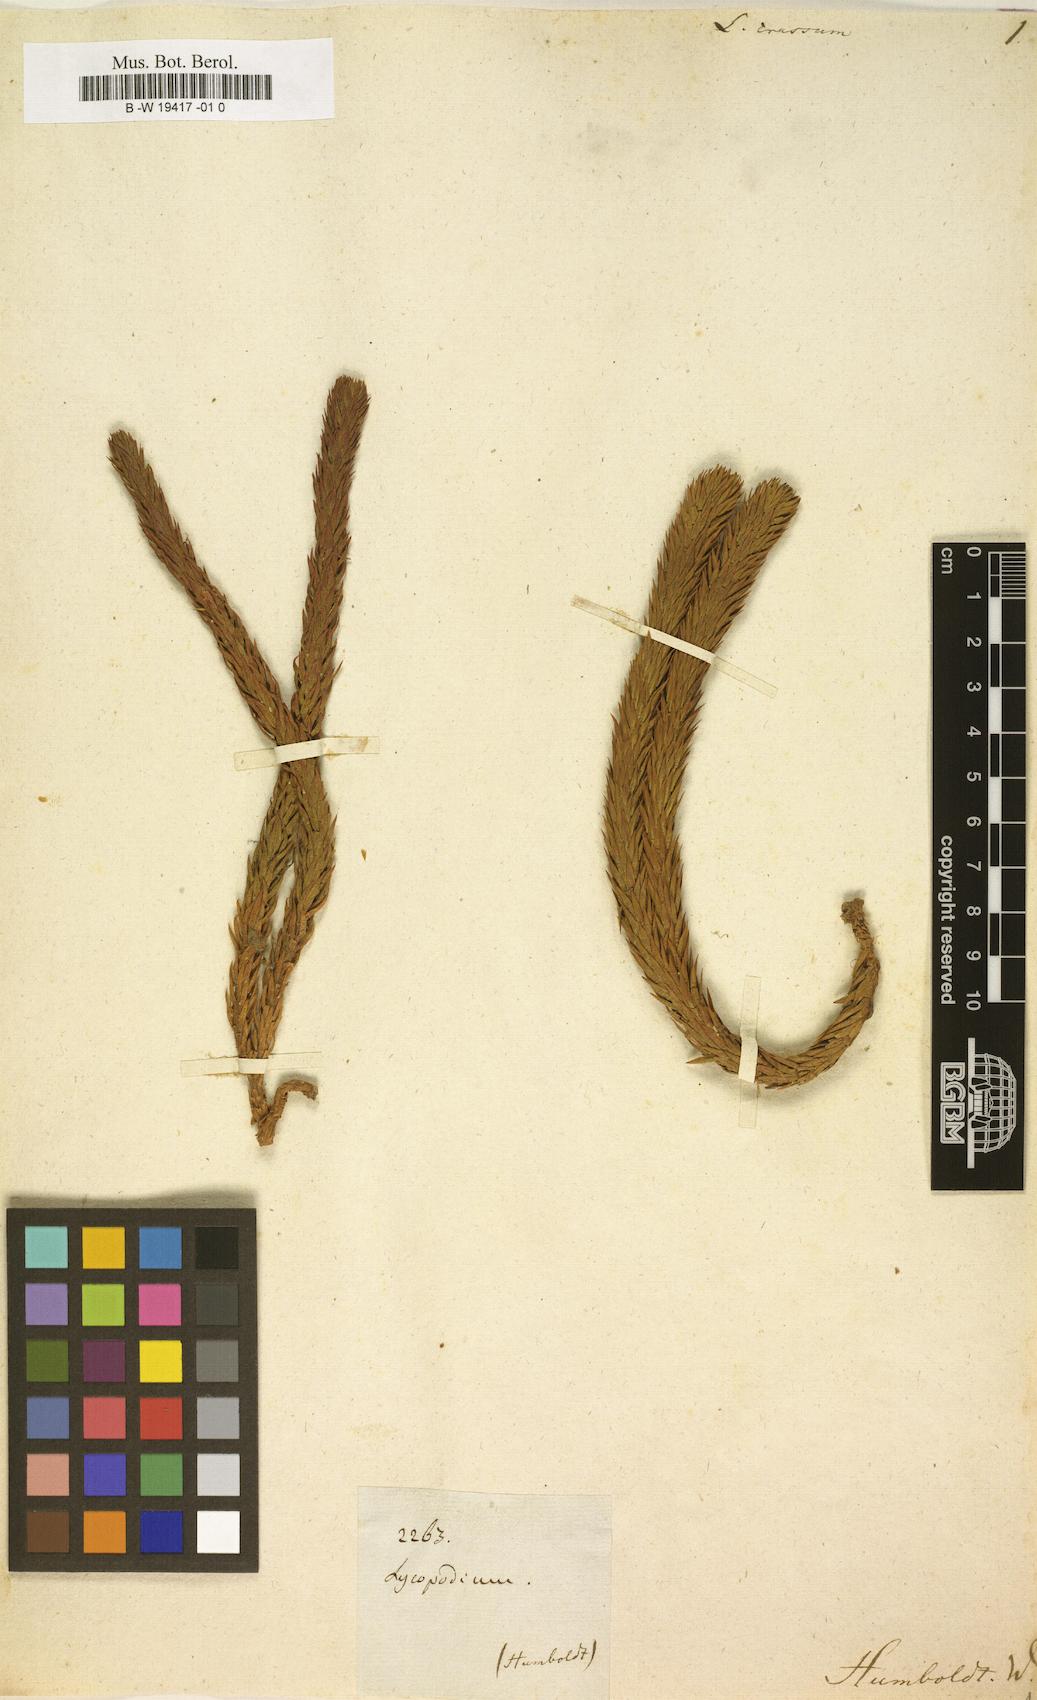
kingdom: Plantae
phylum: Tracheophyta
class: Lycopodiopsida
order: Lycopodiales
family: Lycopodiaceae
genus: Phlegmariurus
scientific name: Phlegmariurus crassus
